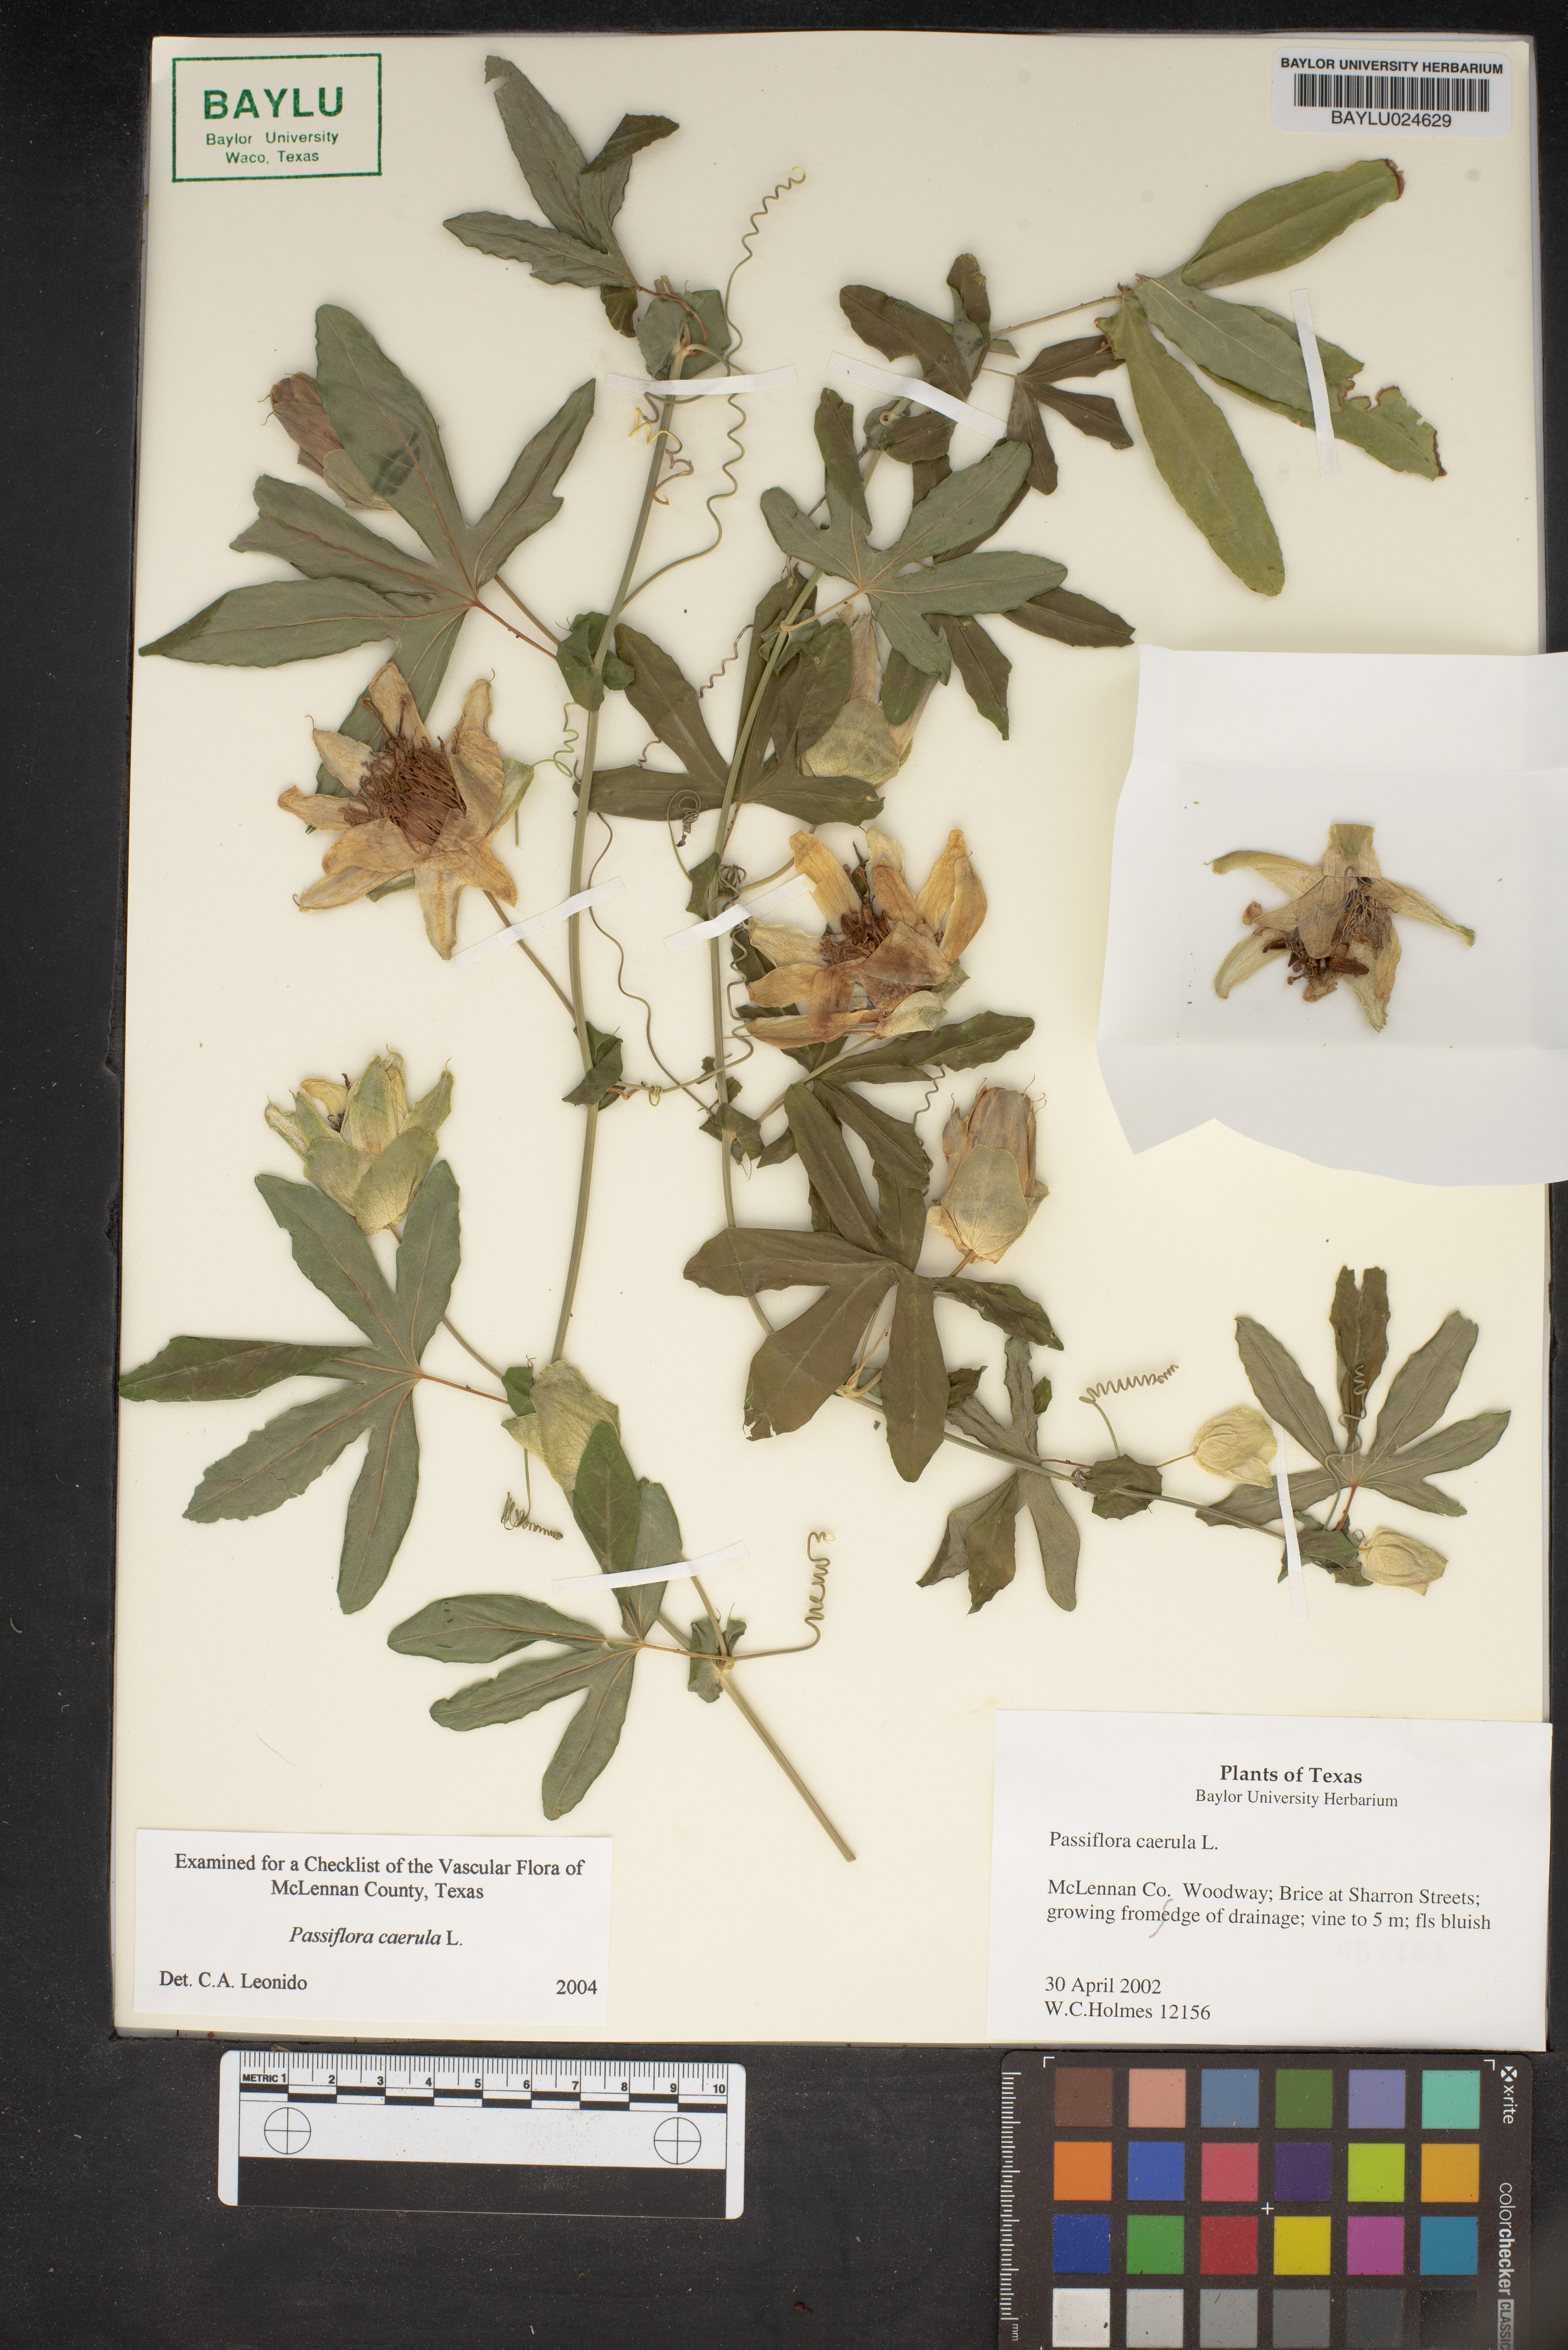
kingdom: Plantae
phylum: Tracheophyta
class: Magnoliopsida
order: Malpighiales
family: Passifloraceae
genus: Passiflora
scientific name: Passiflora caerulea
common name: Blue passionflower
